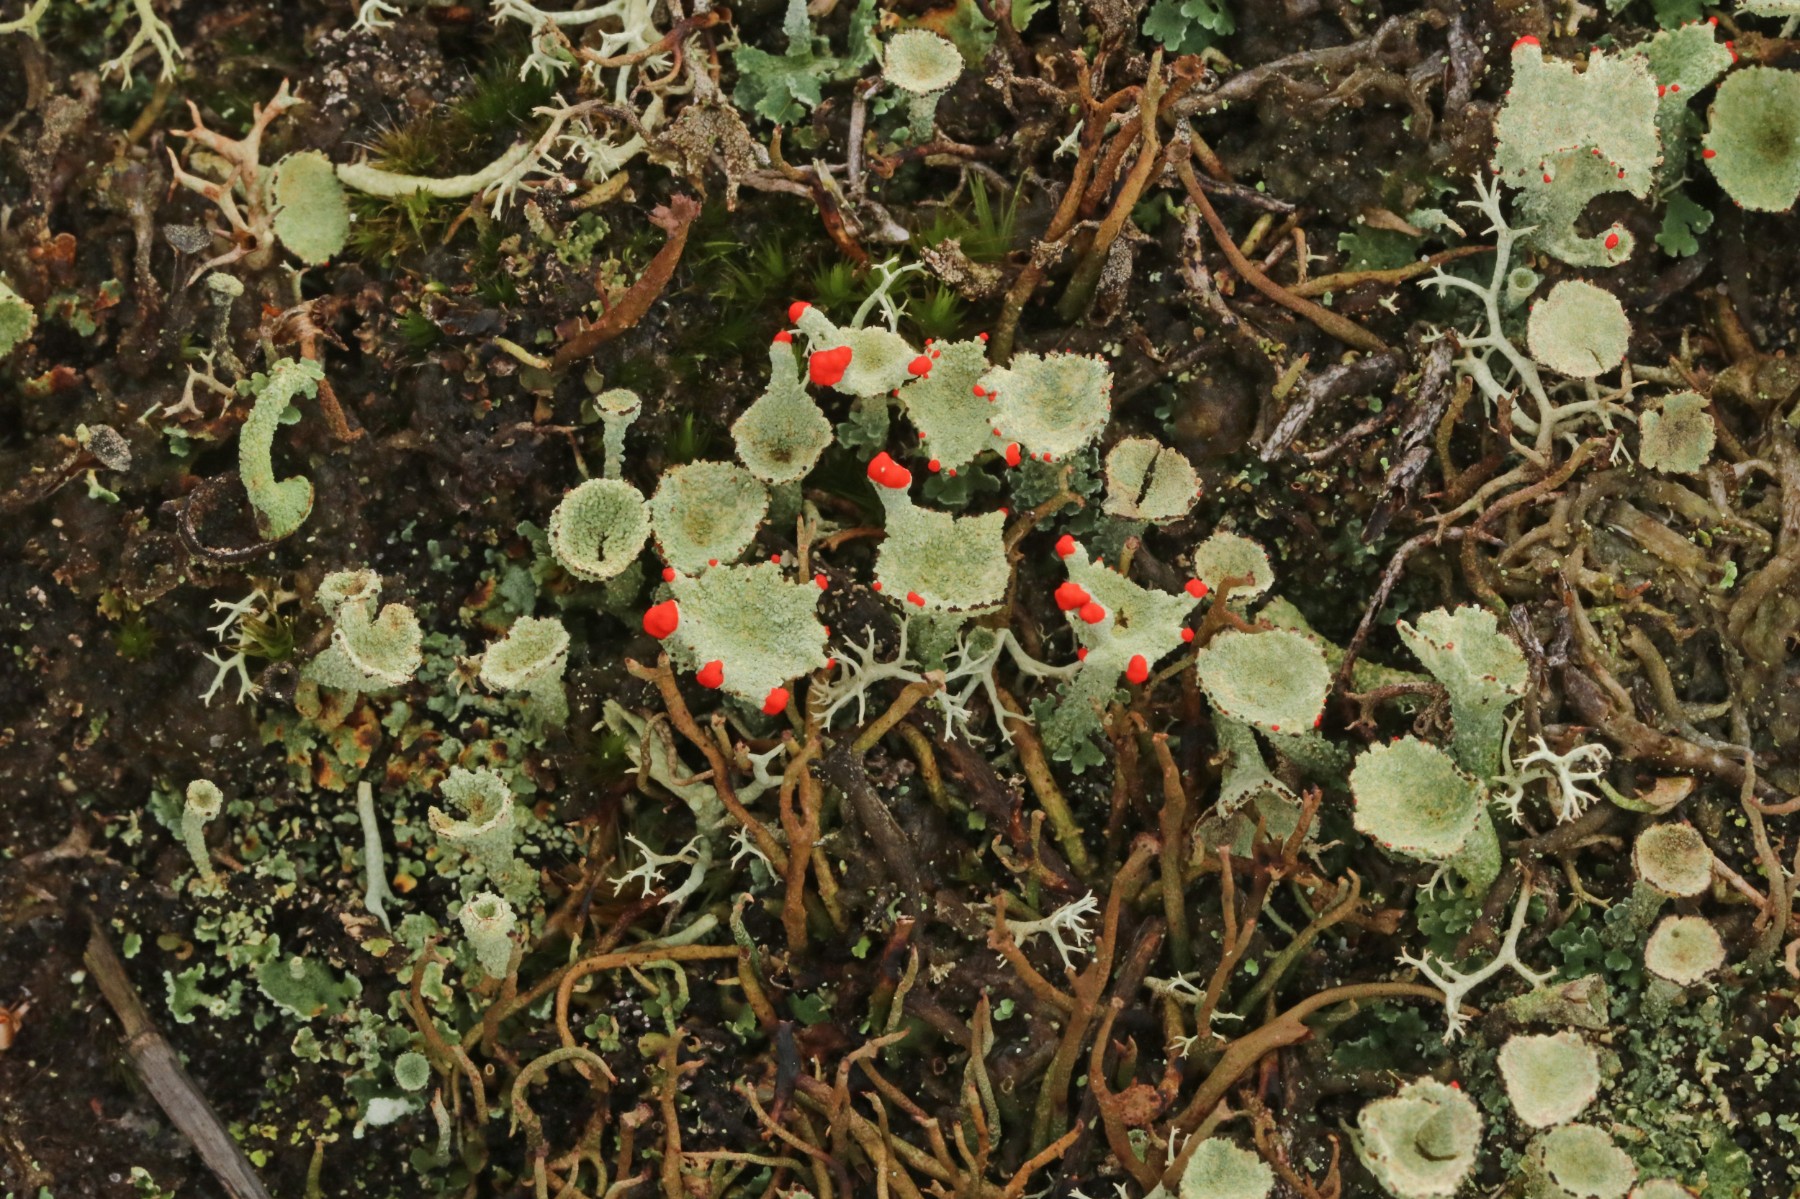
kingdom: Fungi
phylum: Ascomycota
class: Lecanoromycetes
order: Lecanorales
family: Cladoniaceae
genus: Cladonia
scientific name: Cladonia diversa
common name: rød bægerlav
